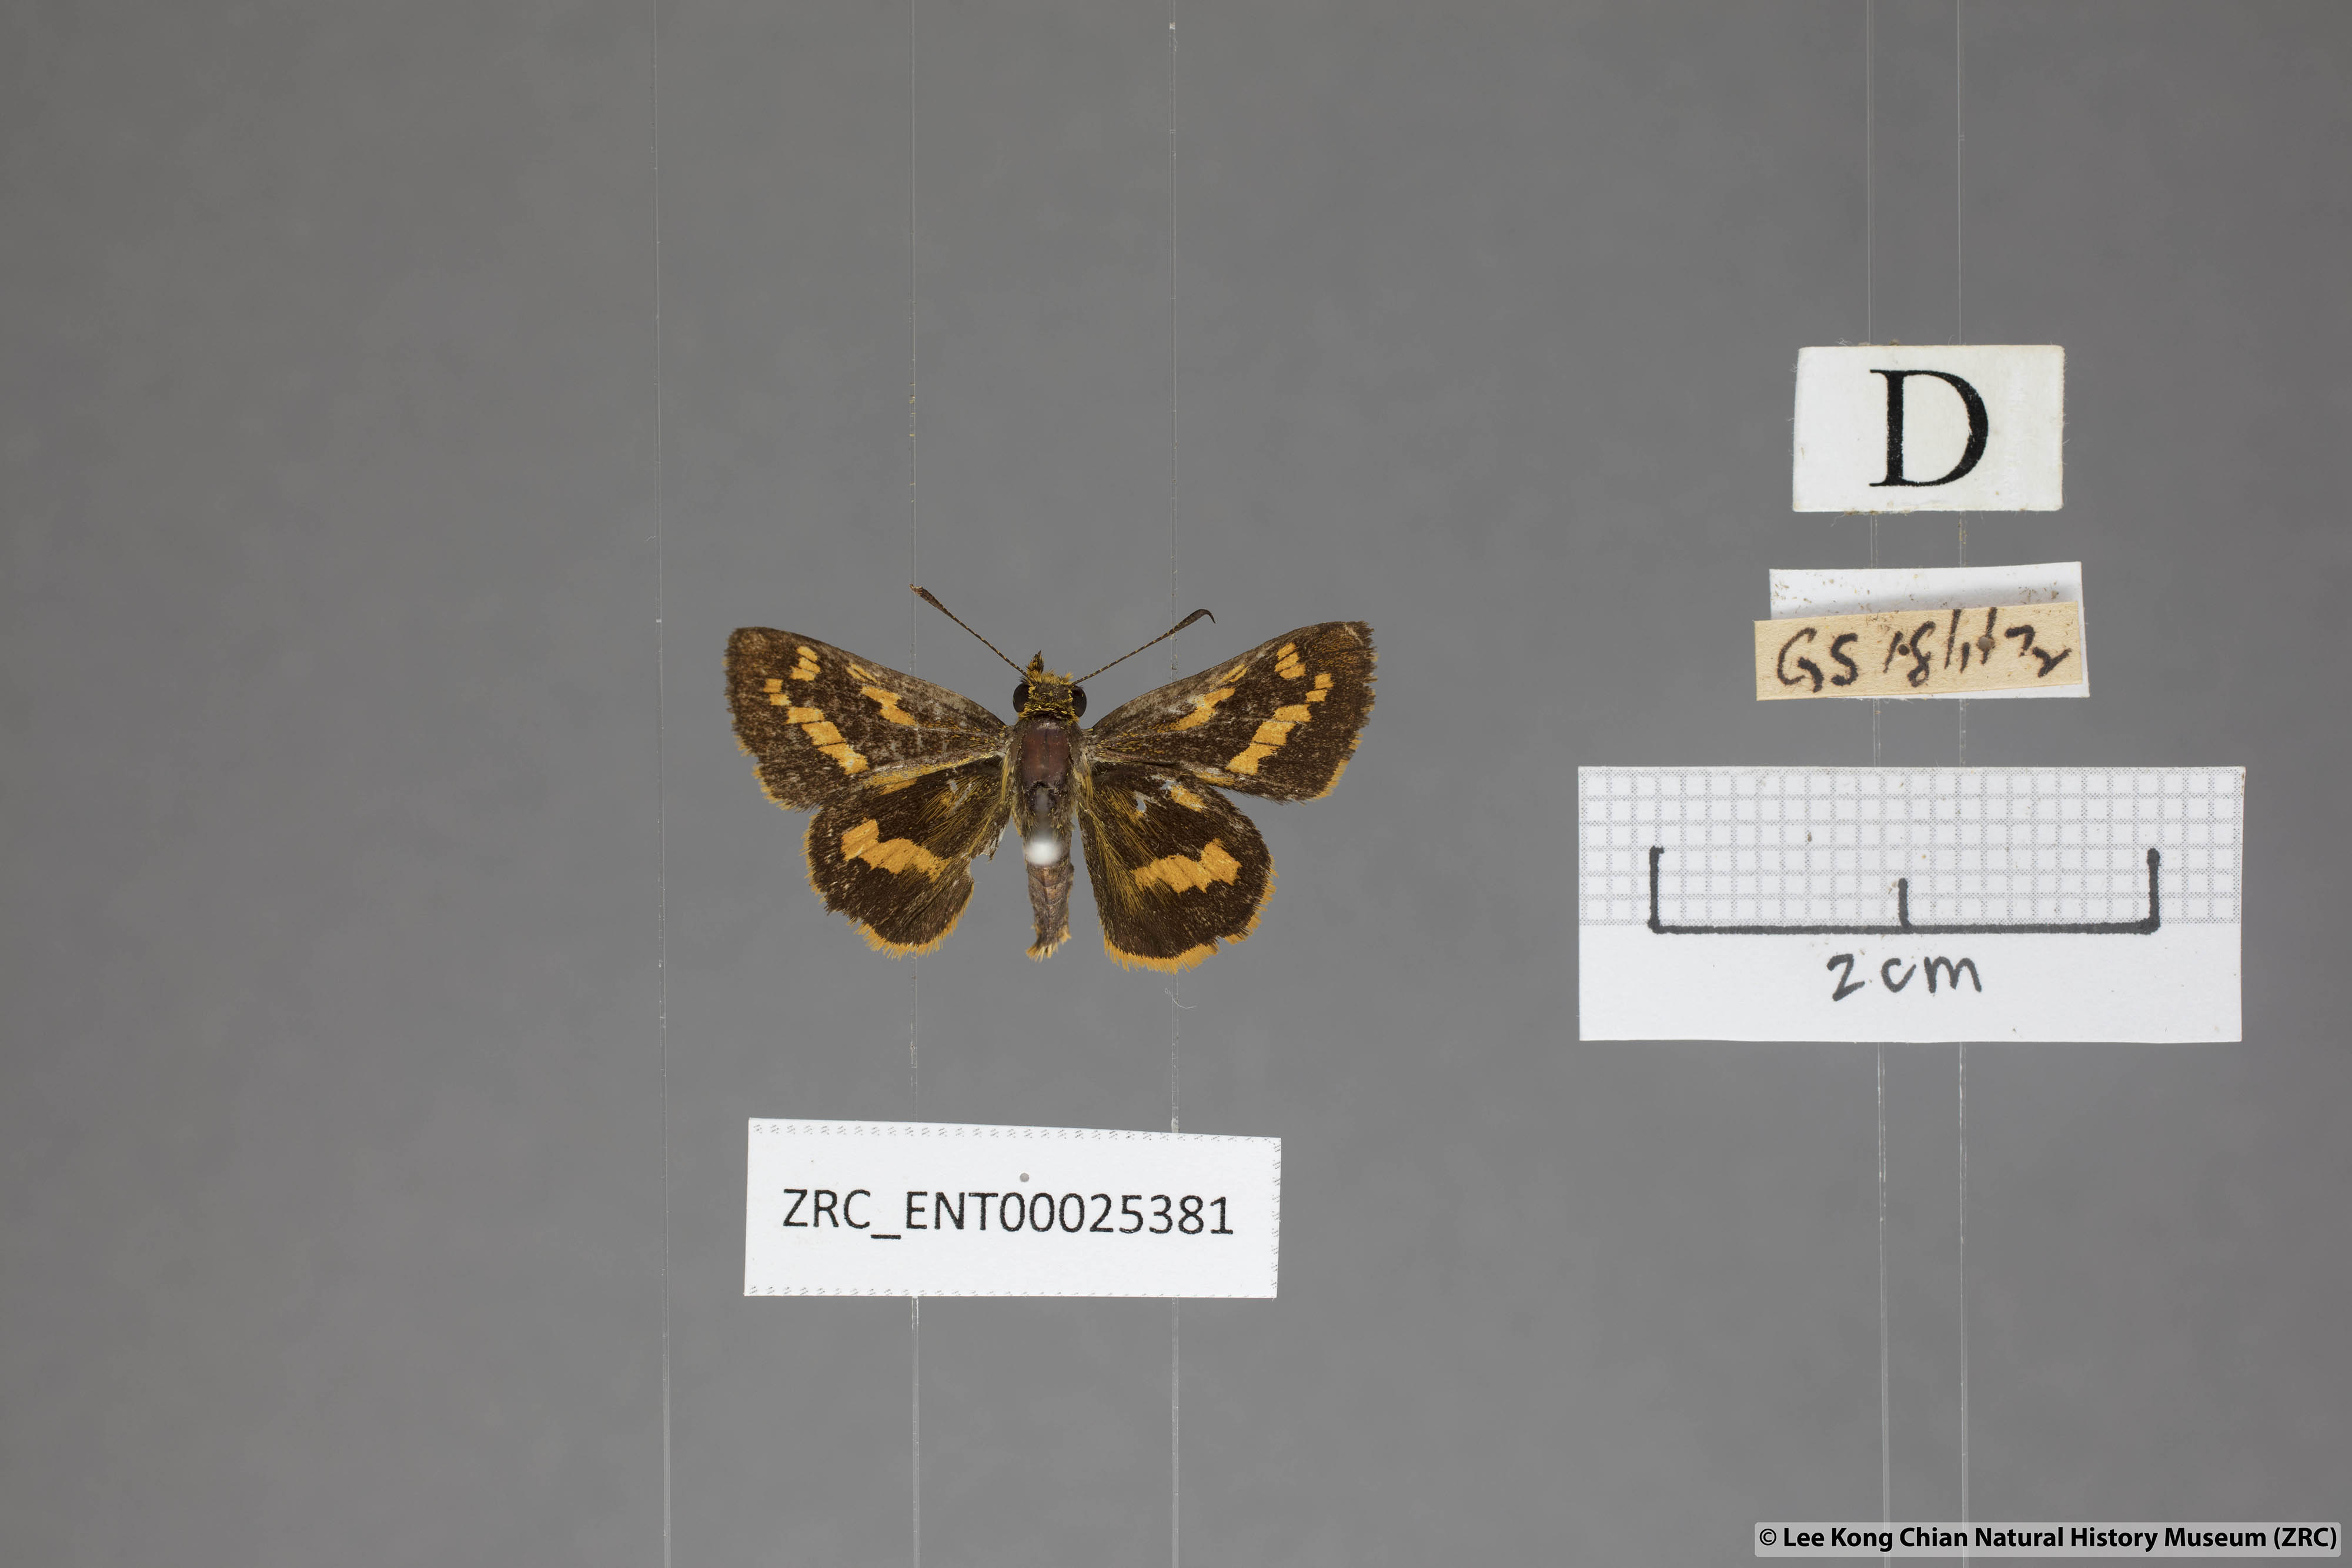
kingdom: Animalia
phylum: Arthropoda
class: Insecta
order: Lepidoptera
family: Hesperiidae
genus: Potanthus
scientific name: Potanthus ganda
